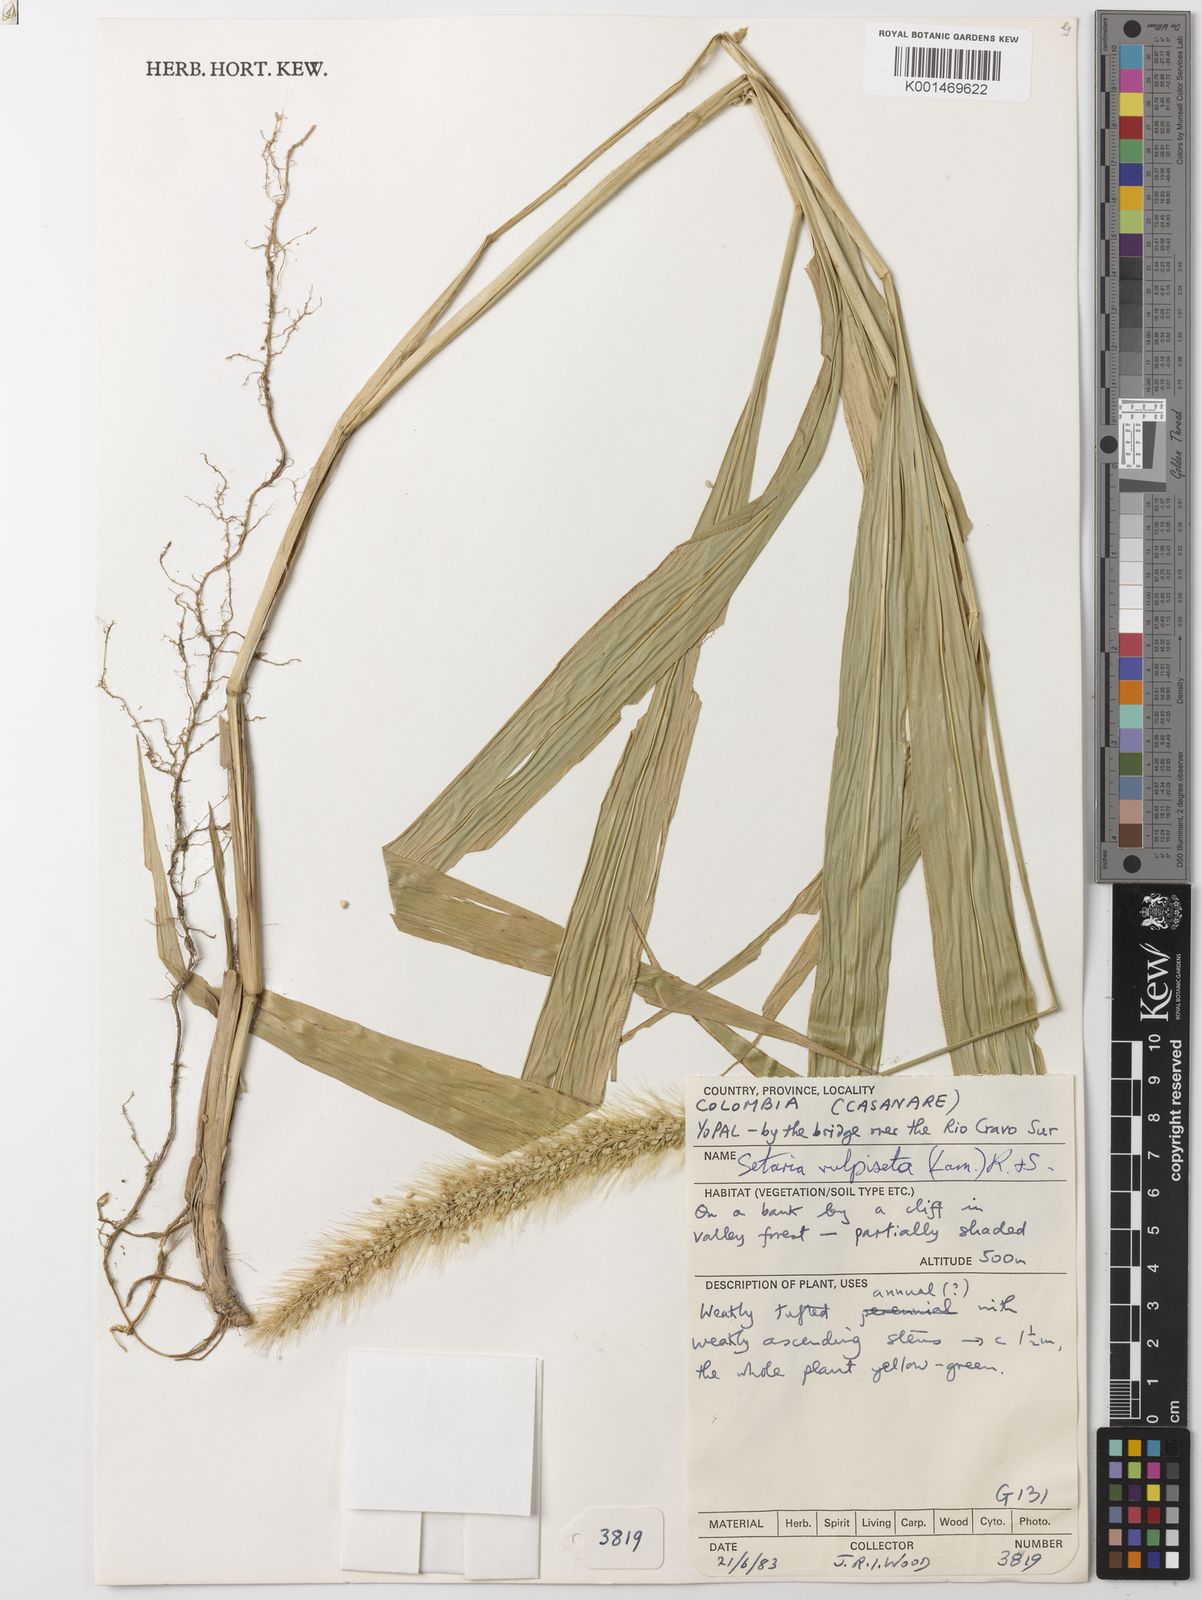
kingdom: Plantae
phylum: Tracheophyta
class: Liliopsida
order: Poales
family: Poaceae
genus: Setaria
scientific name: Setaria vulpiseta
